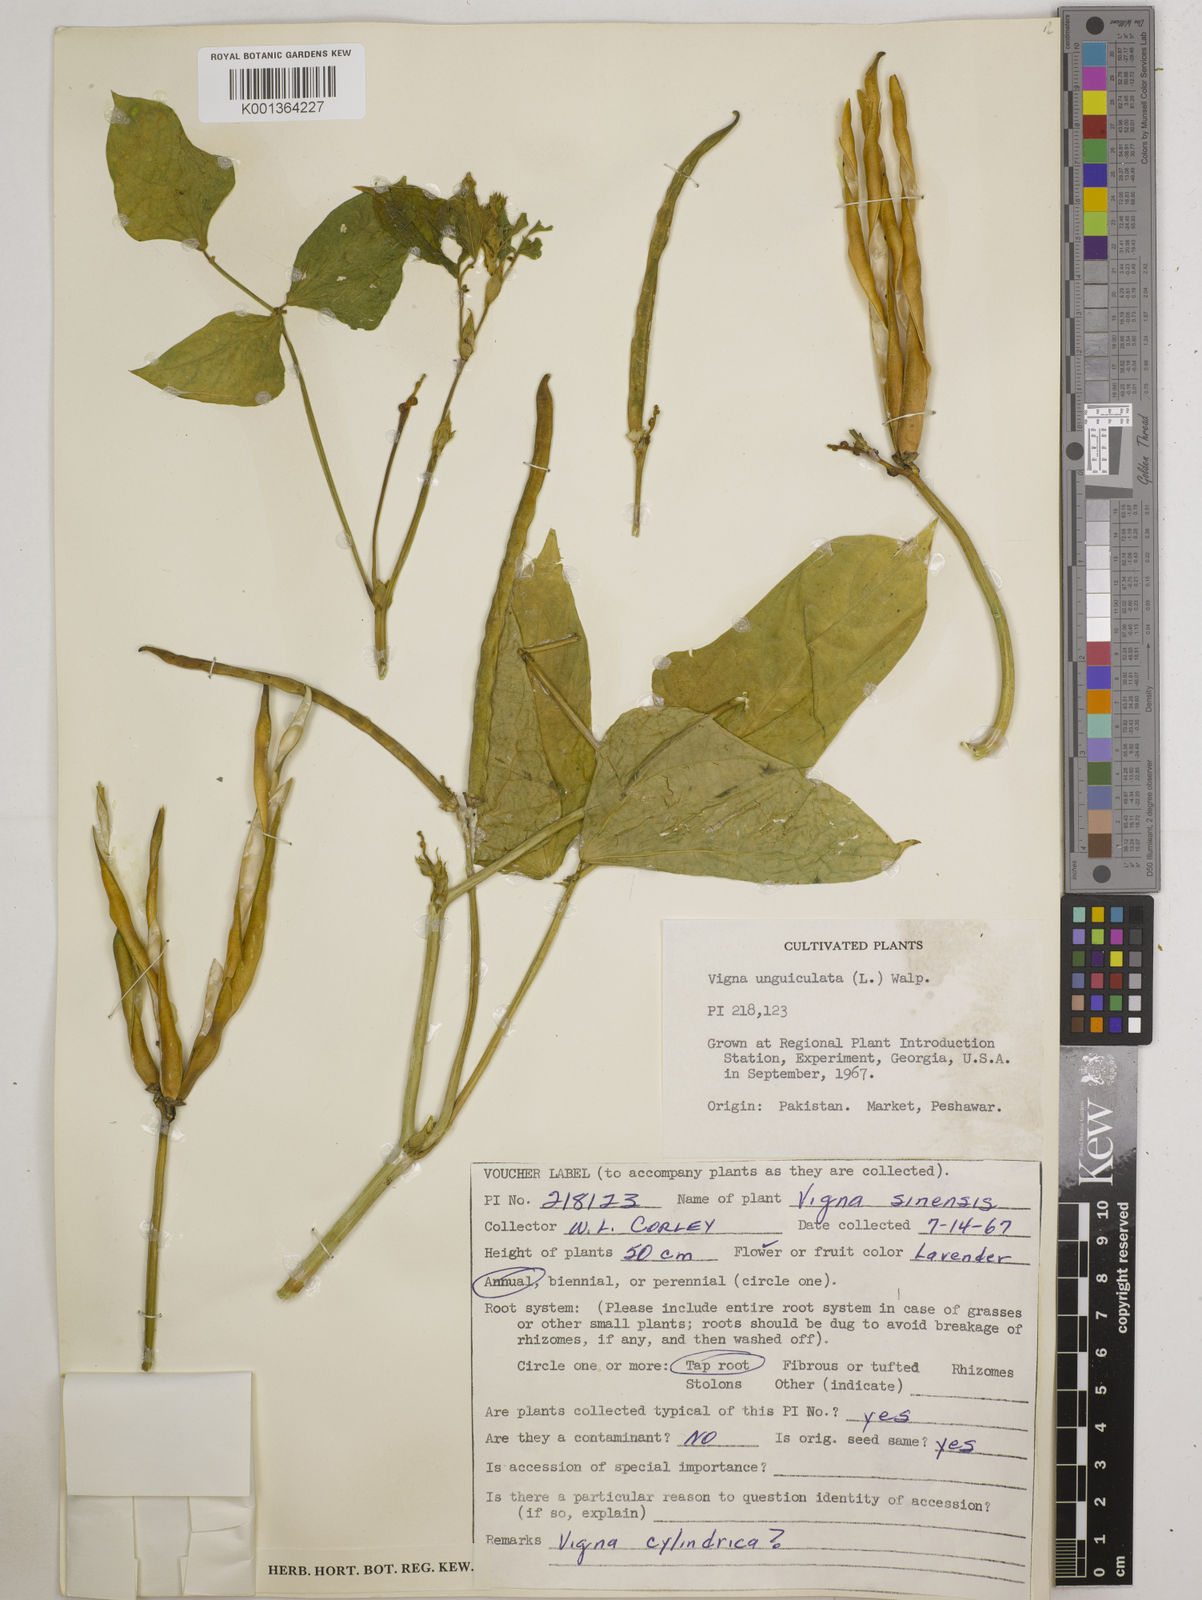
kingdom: Plantae
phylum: Tracheophyta
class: Magnoliopsida
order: Fabales
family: Fabaceae
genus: Vigna
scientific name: Vigna
